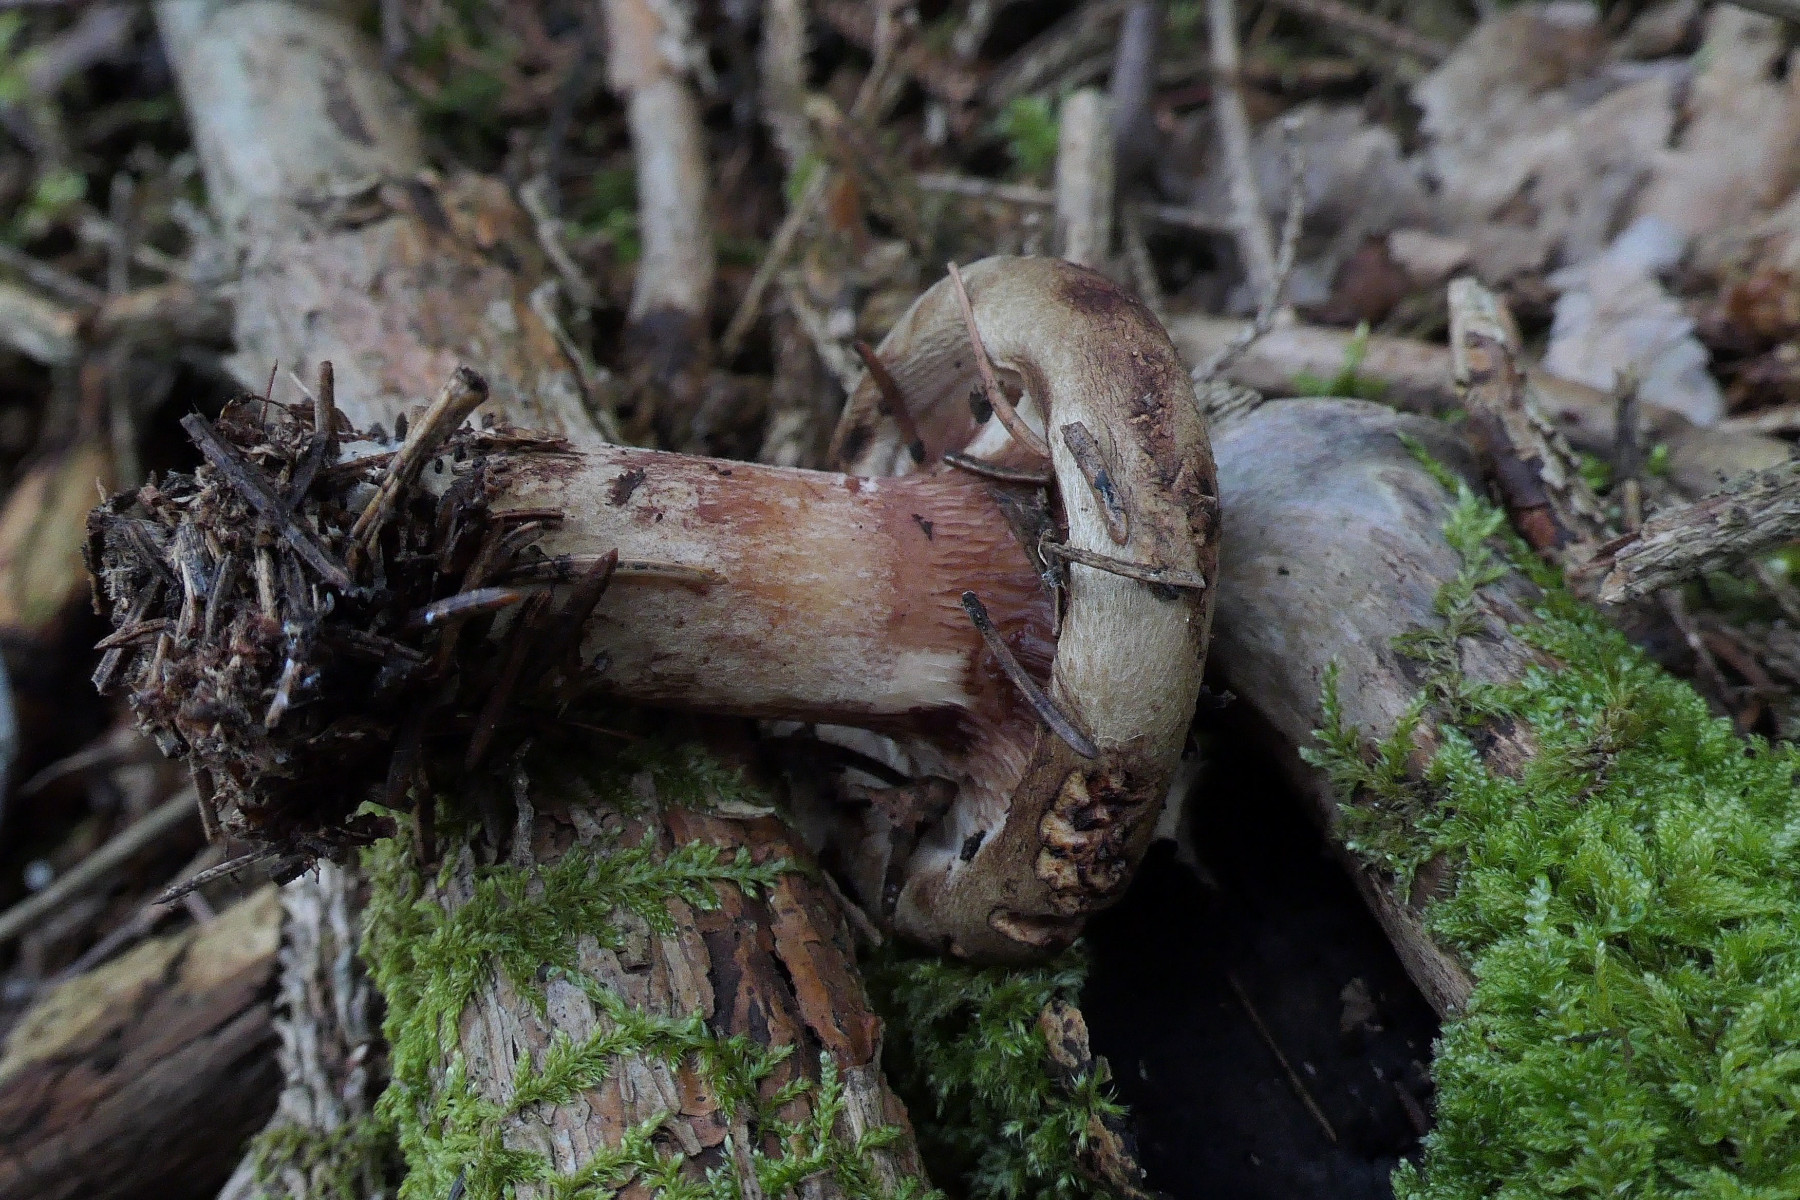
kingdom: Fungi
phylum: Basidiomycota
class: Agaricomycetes
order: Boletales
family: Paxillaceae
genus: Paxillus
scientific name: Paxillus involutus
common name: almindelig netbladhat
